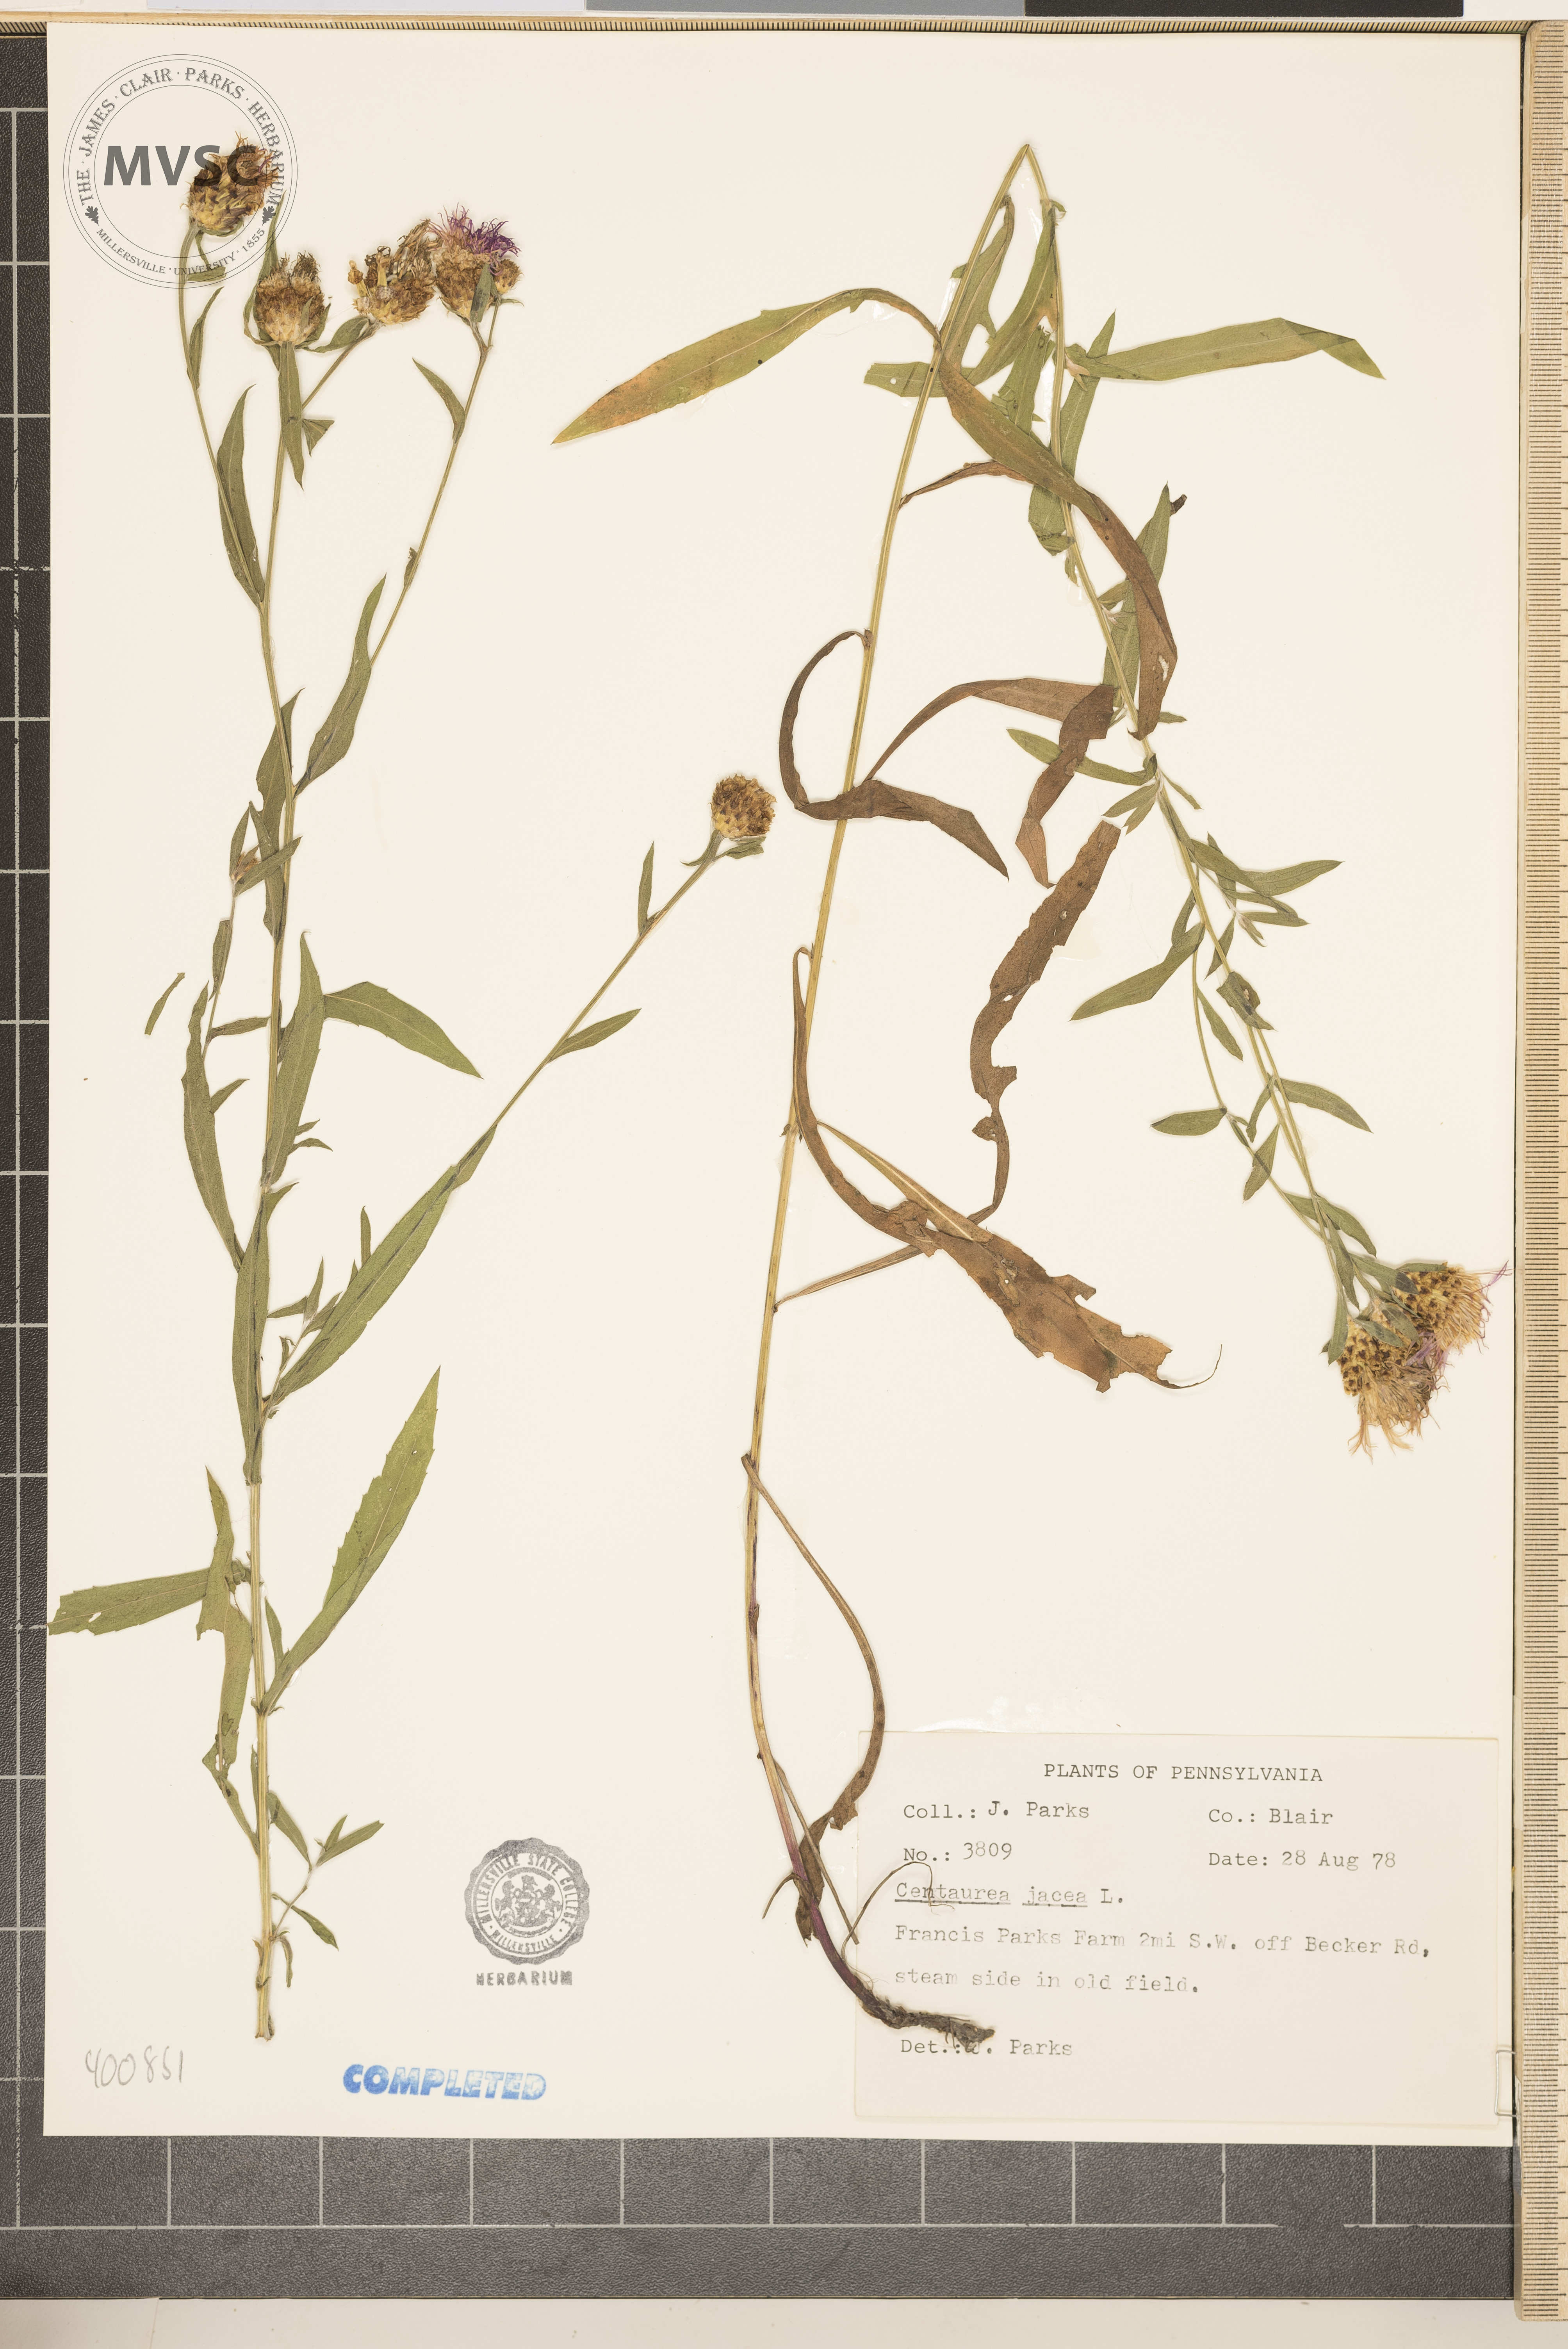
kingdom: Plantae
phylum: Tracheophyta
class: Magnoliopsida
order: Asterales
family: Asteraceae
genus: Centaurea
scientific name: Centaurea jacea
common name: Brown knapweed
